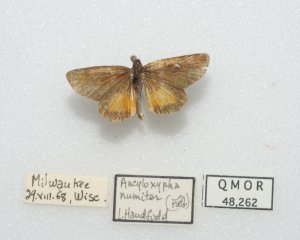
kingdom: Animalia
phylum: Arthropoda
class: Insecta
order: Lepidoptera
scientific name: Lepidoptera
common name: Butterflies
